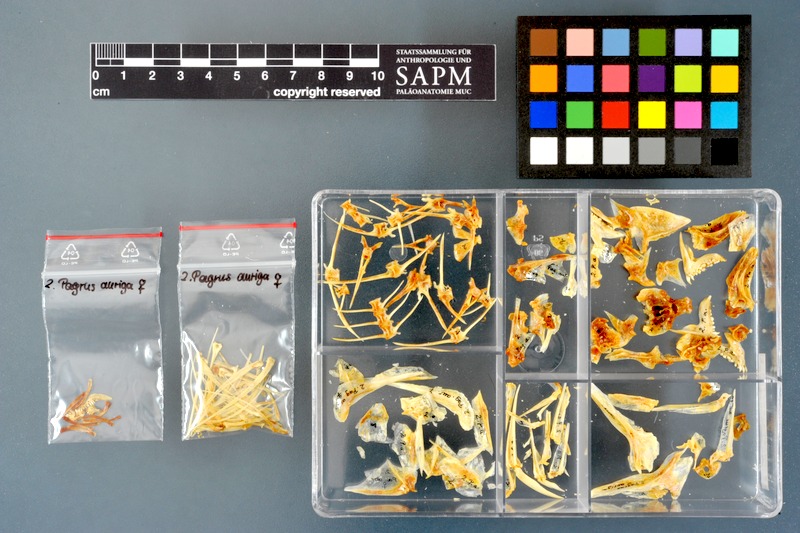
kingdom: Animalia
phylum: Chordata
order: Perciformes
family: Sparidae
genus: Pagrus
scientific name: Pagrus auriga
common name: Murudai
